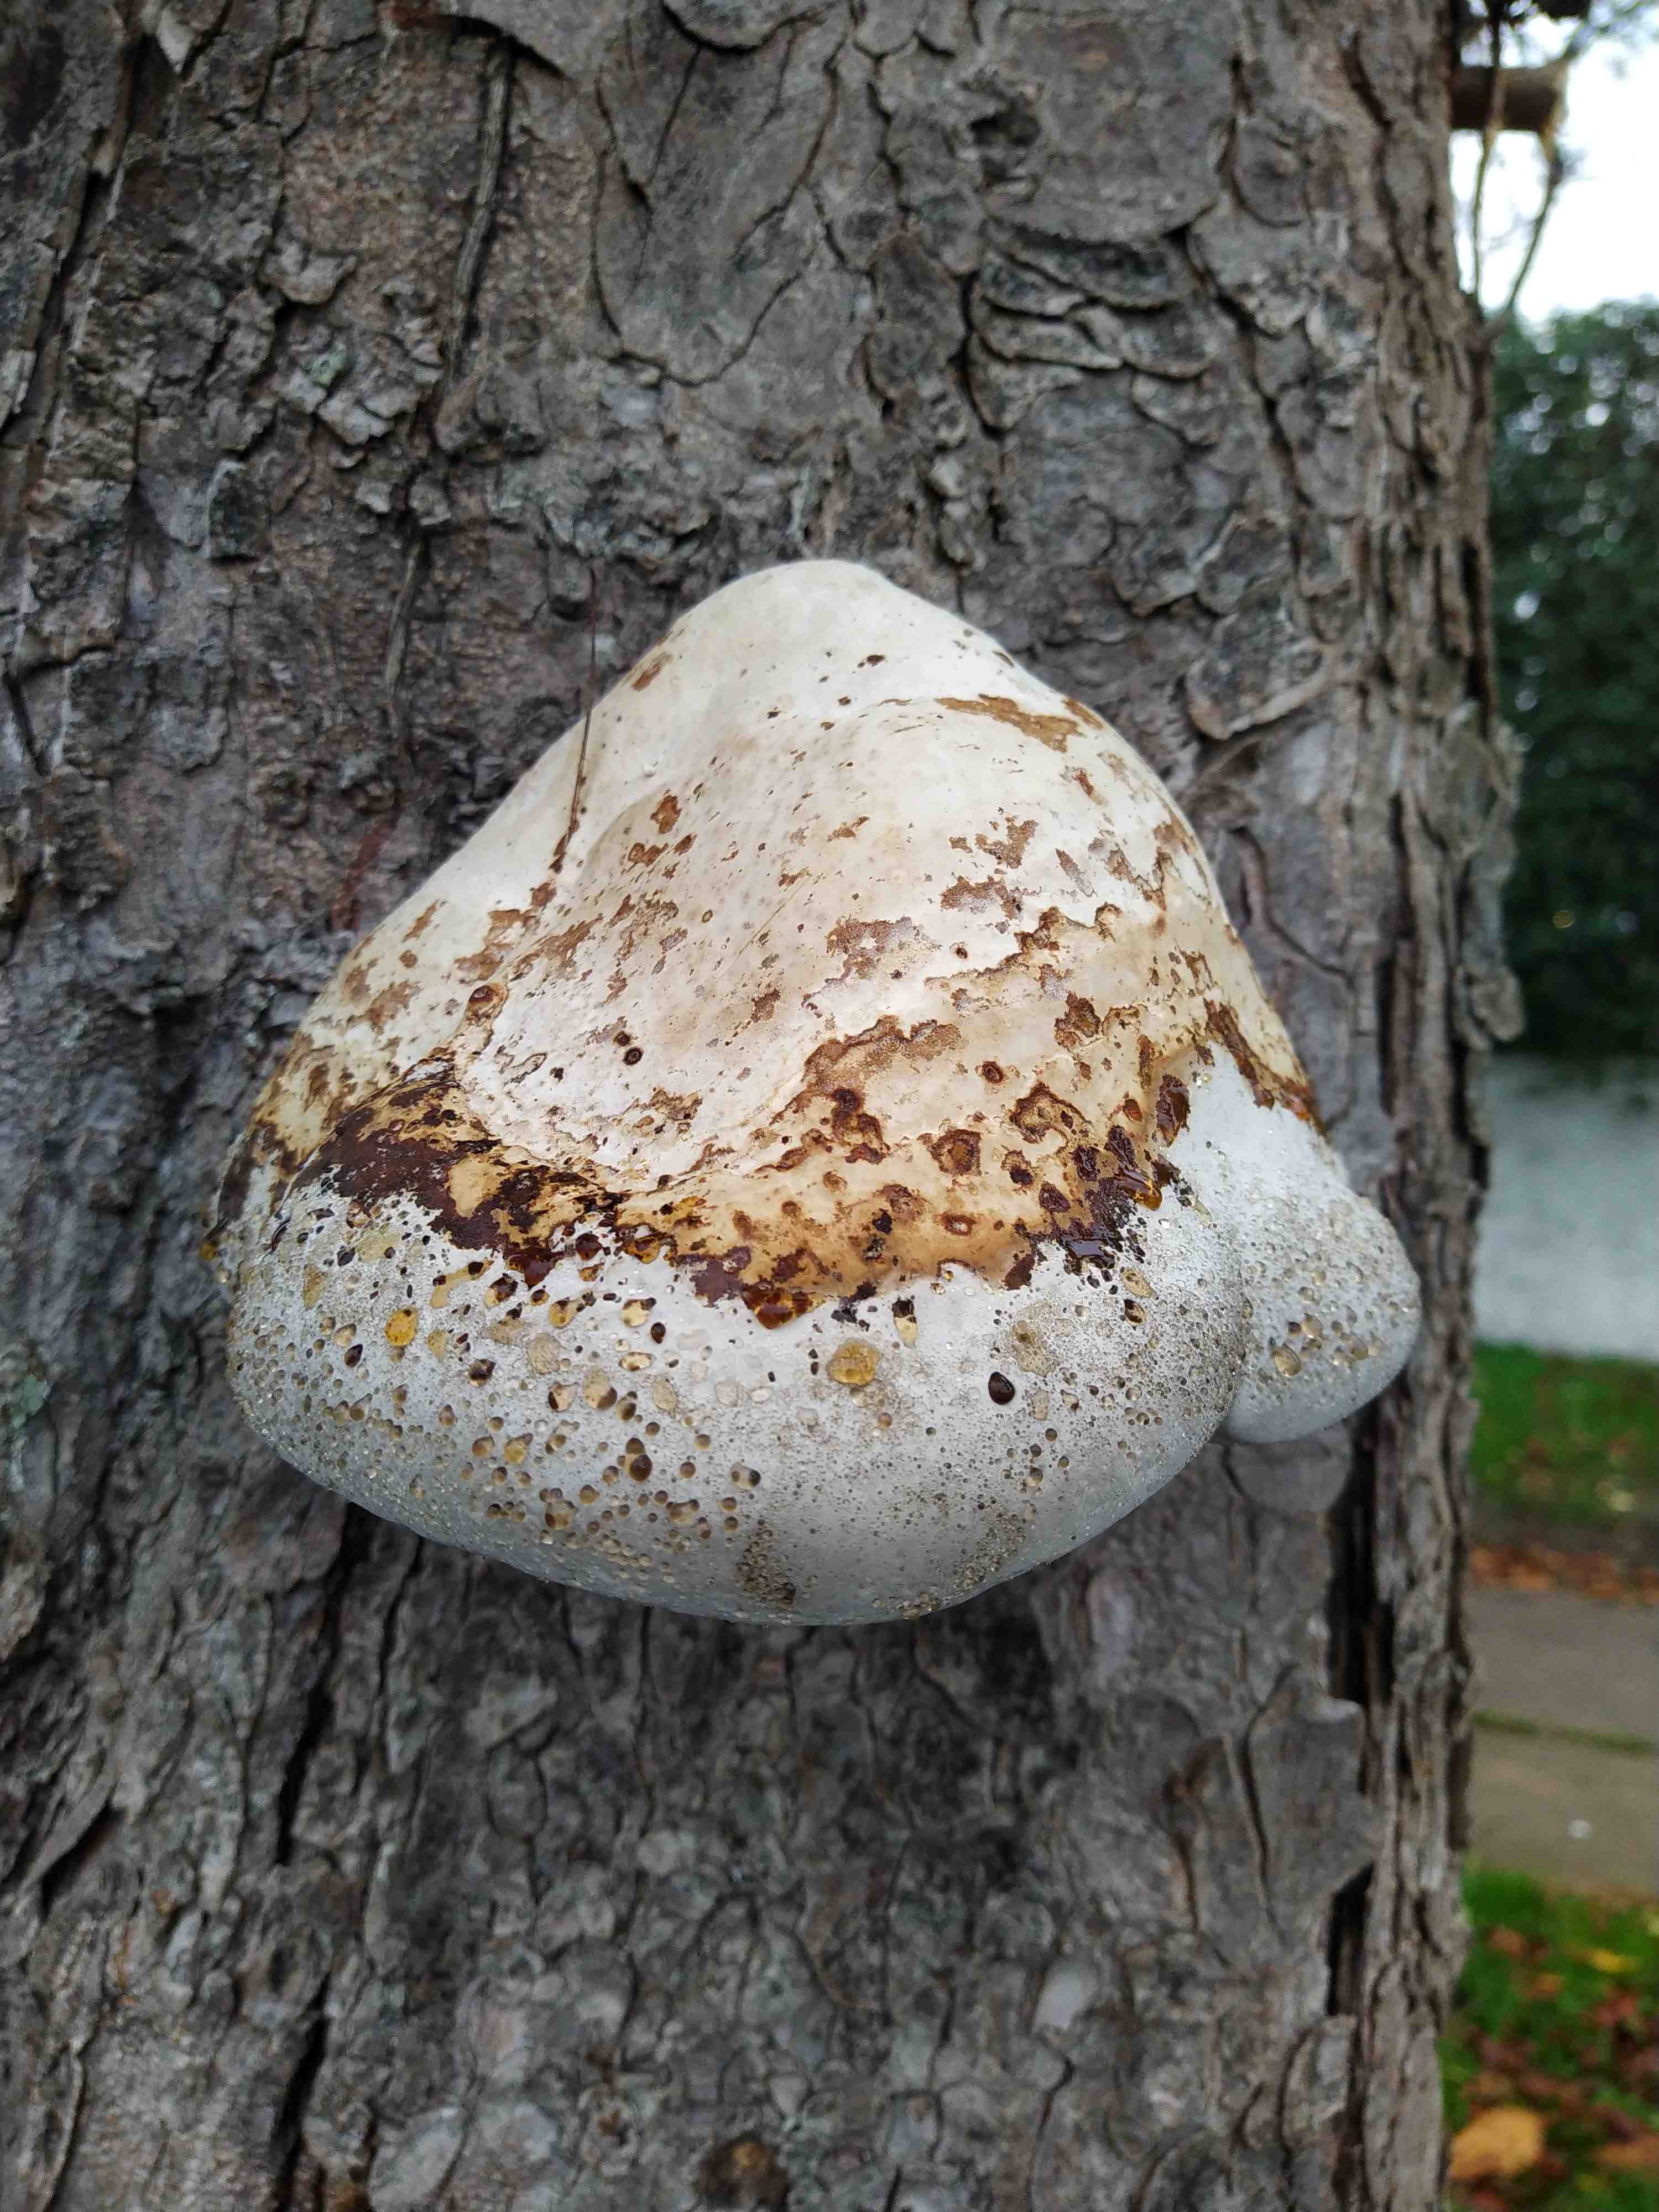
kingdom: Fungi
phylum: Basidiomycota
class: Agaricomycetes
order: Polyporales
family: Polyporaceae
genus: Fomes
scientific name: Fomes fomentarius
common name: tøndersvamp
